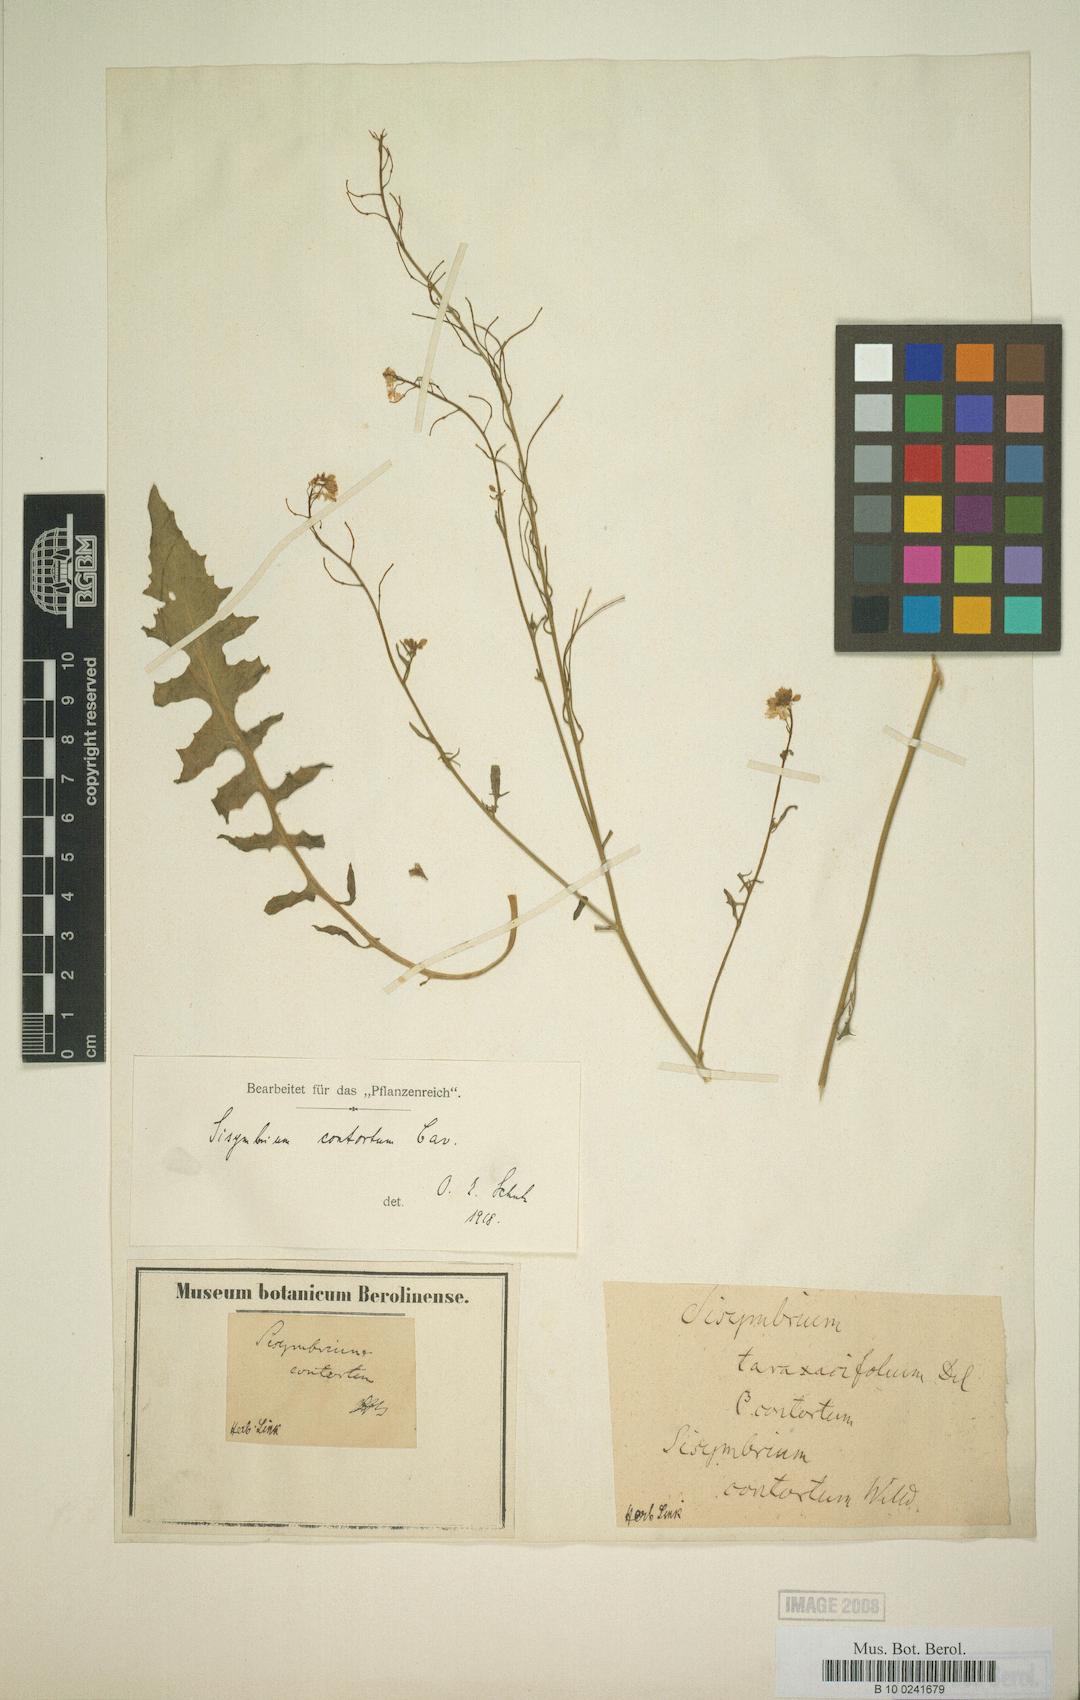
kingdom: Plantae
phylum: Tracheophyta
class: Magnoliopsida
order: Brassicales
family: Brassicaceae
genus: Sisymbrium
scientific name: Sisymbrium hispanicum
